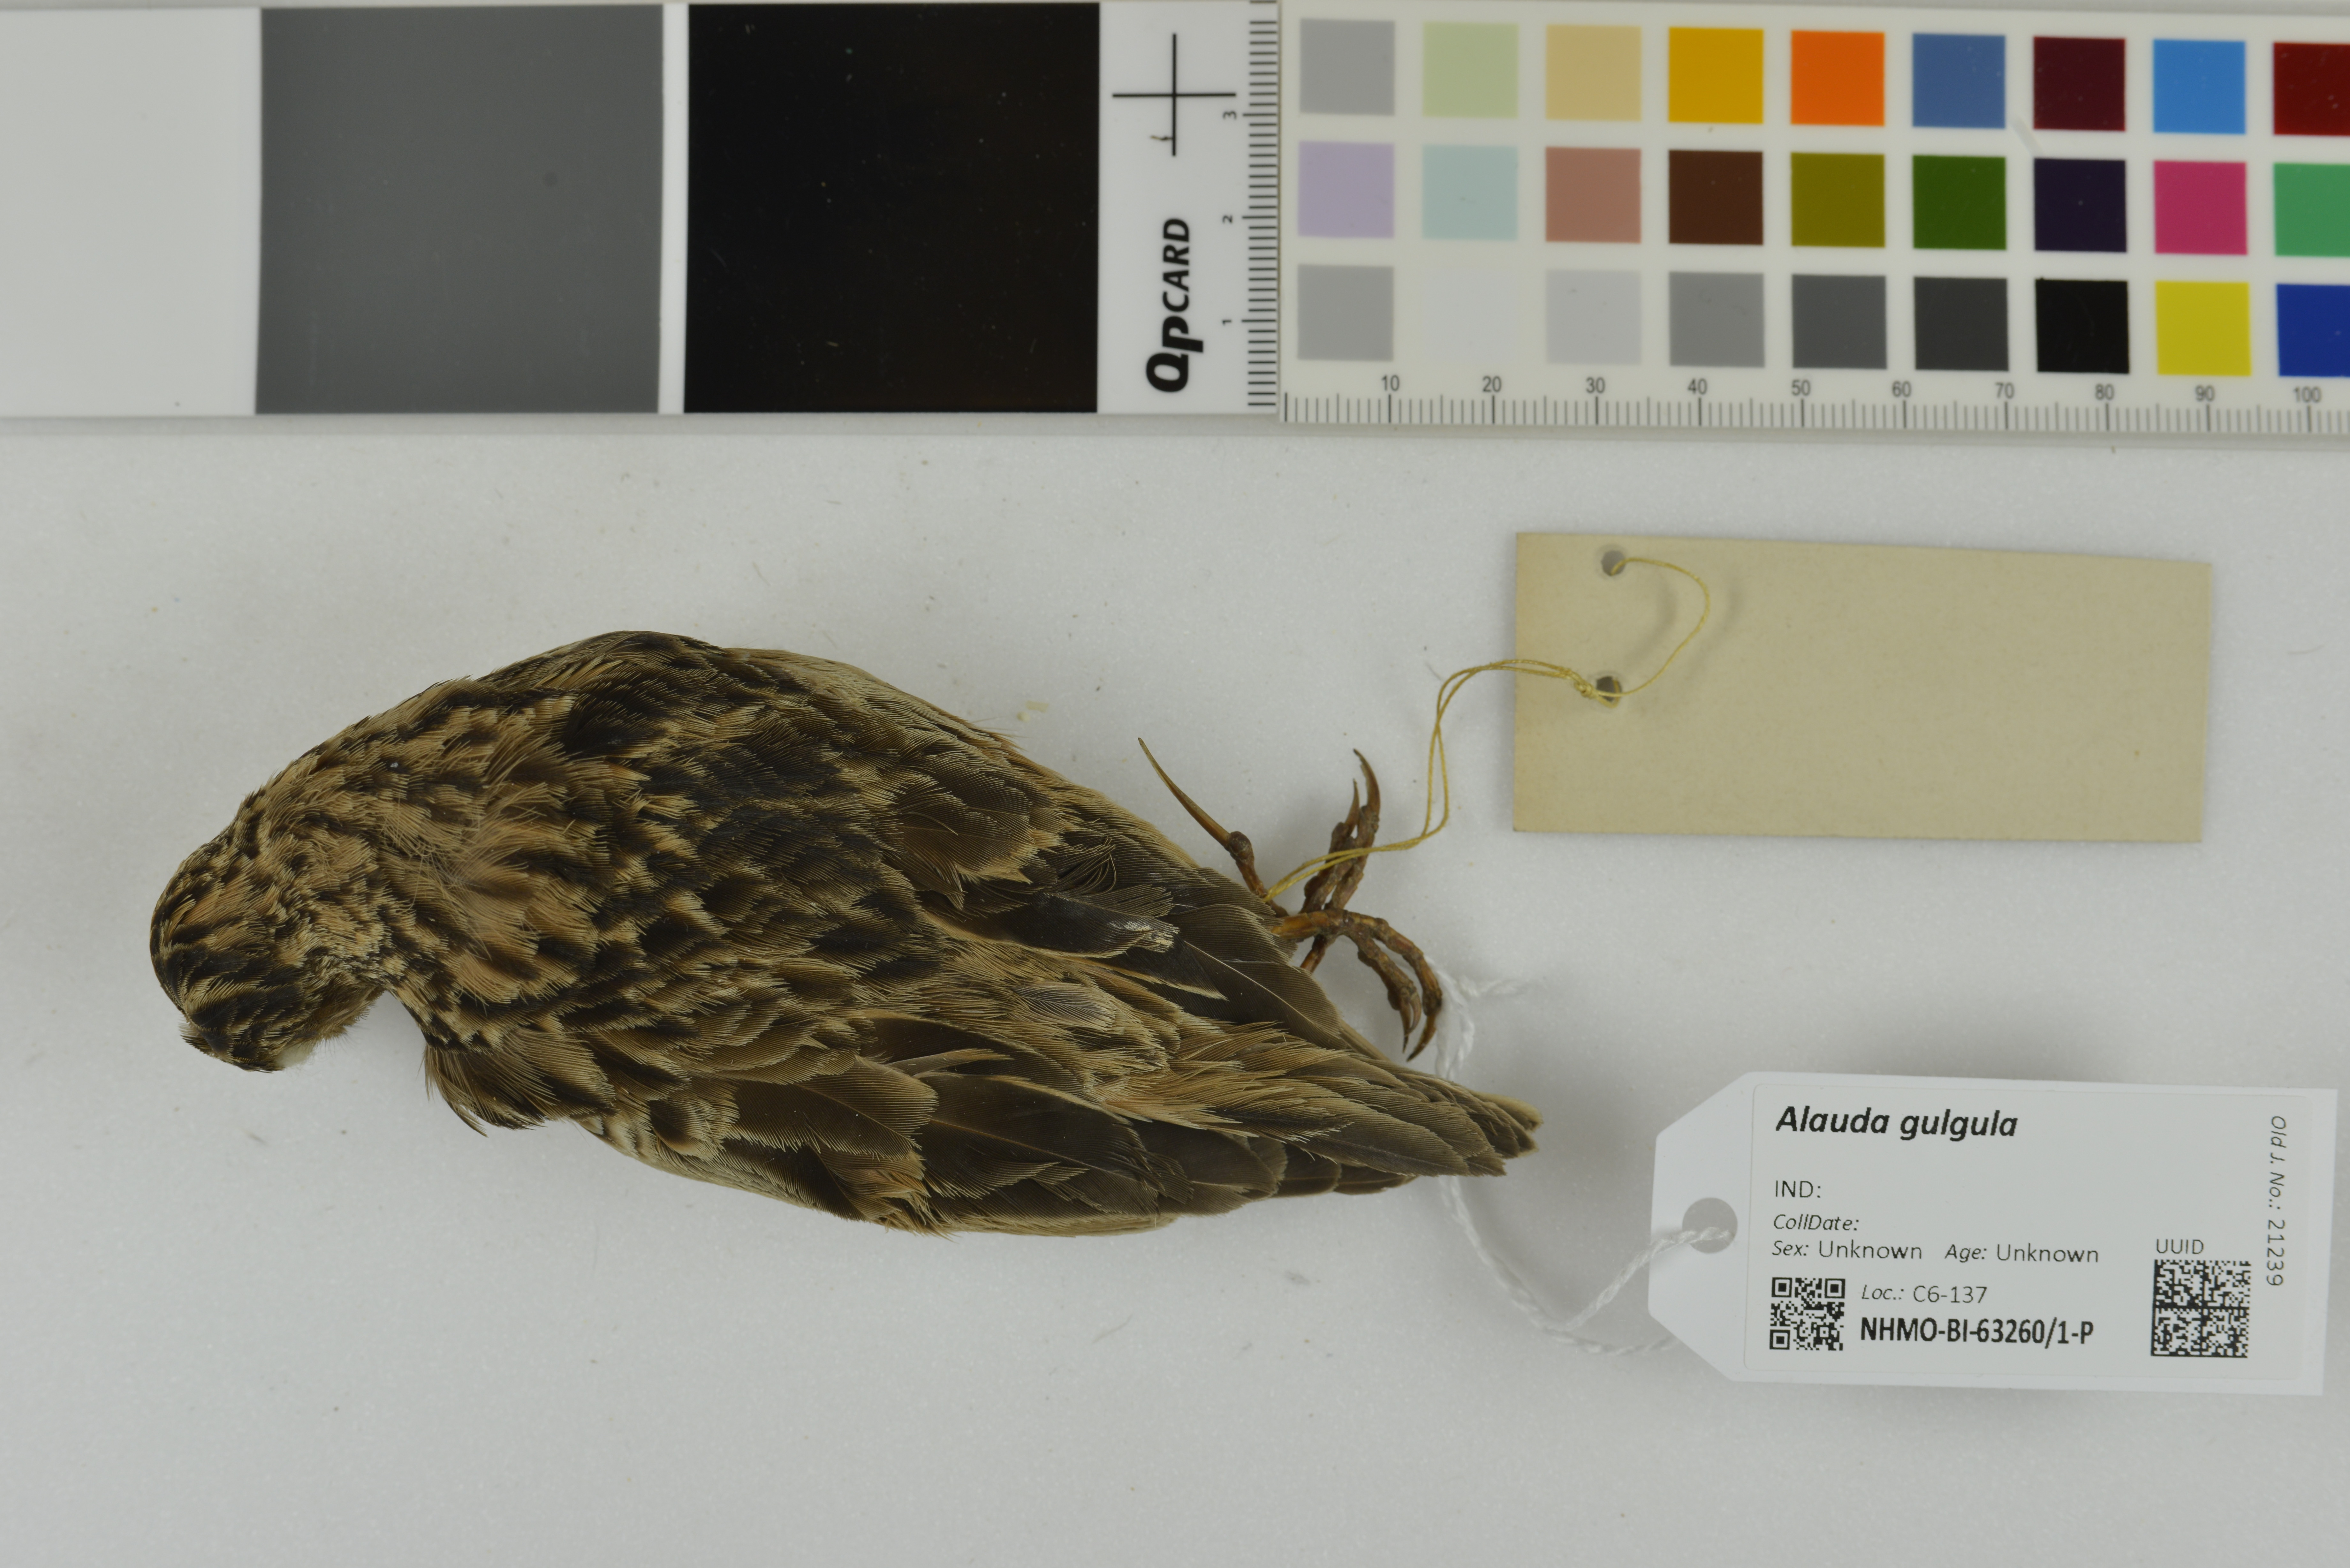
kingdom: Animalia
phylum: Chordata
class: Aves
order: Passeriformes
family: Alaudidae
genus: Alauda
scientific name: Alauda gulgula
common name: Oriental skylark
